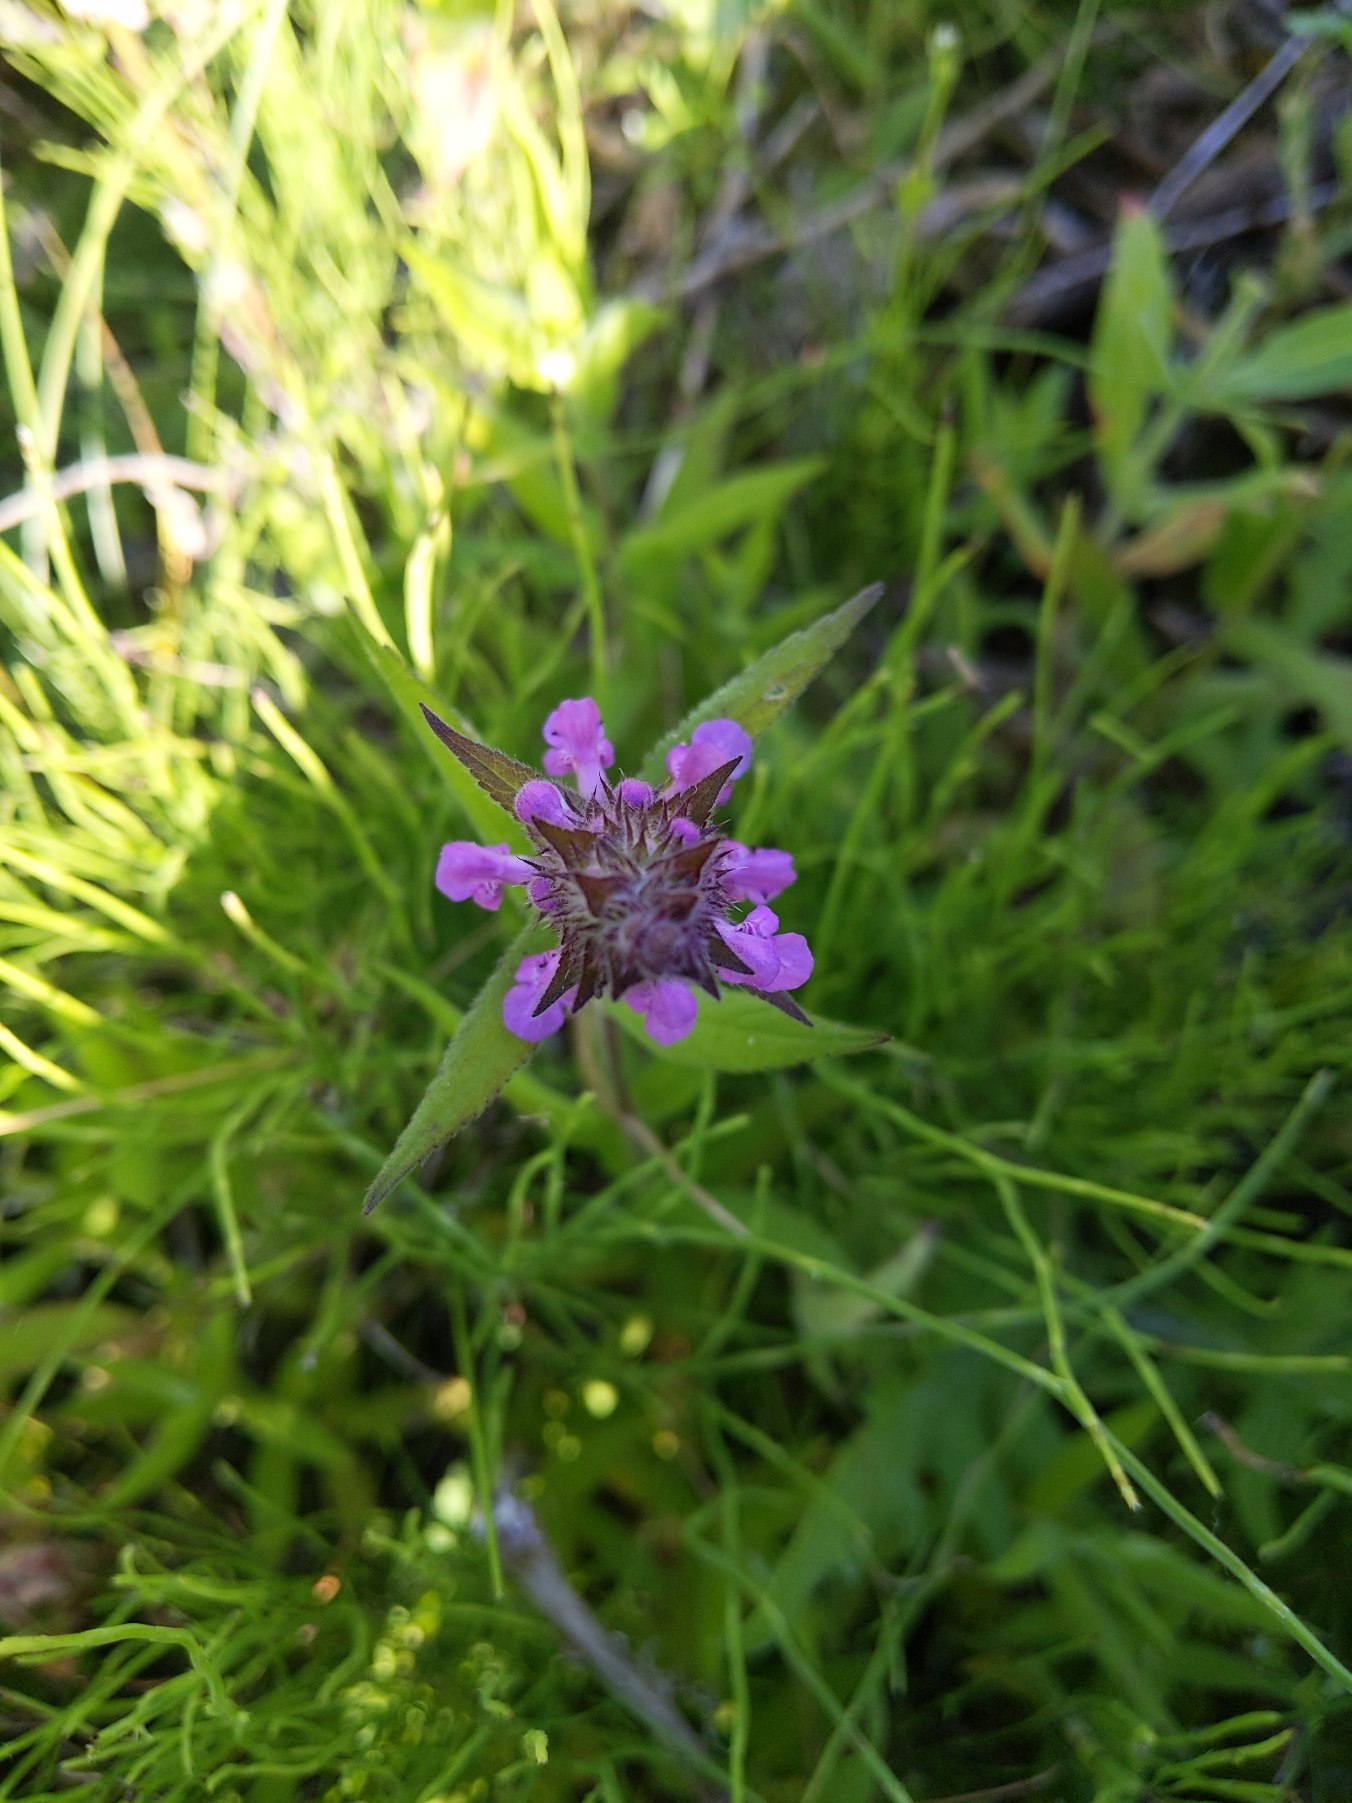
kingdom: Plantae
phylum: Tracheophyta
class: Magnoliopsida
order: Lamiales
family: Lamiaceae
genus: Stachys
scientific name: Stachys palustris
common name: Kær-galtetand
